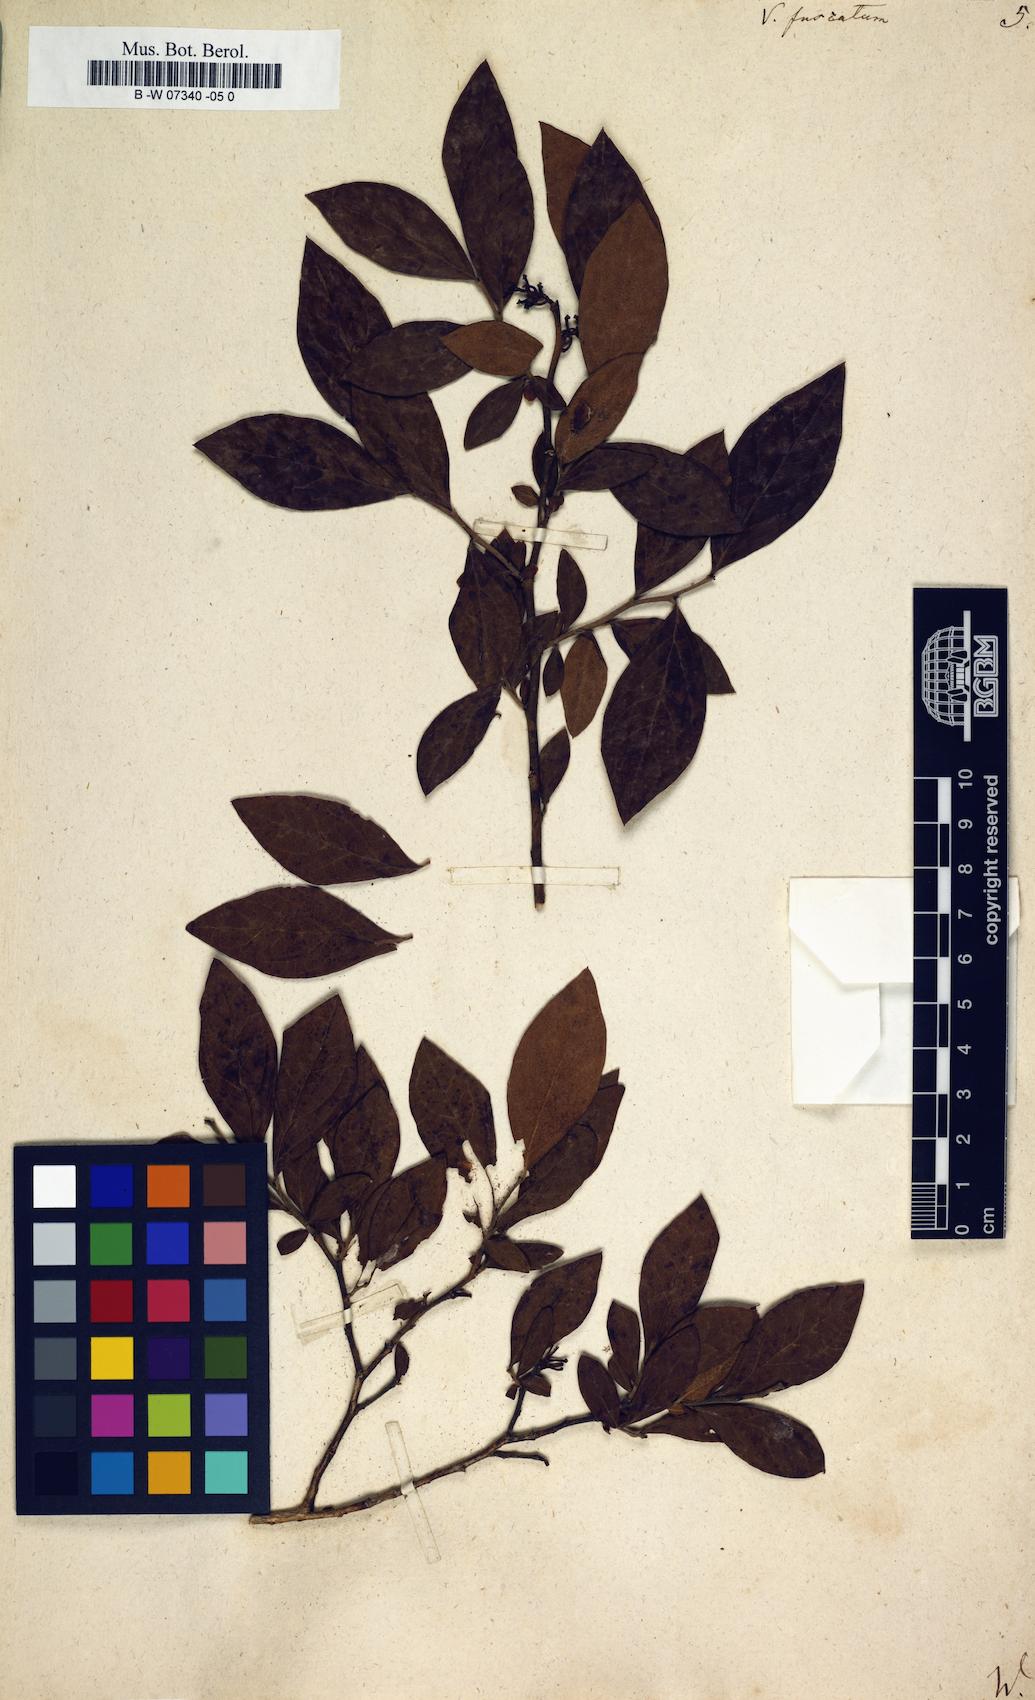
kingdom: Plantae
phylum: Tracheophyta
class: Magnoliopsida
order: Ericales
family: Ericaceae
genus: Vaccinium
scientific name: Vaccinium corymbosum
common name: Blueberry
